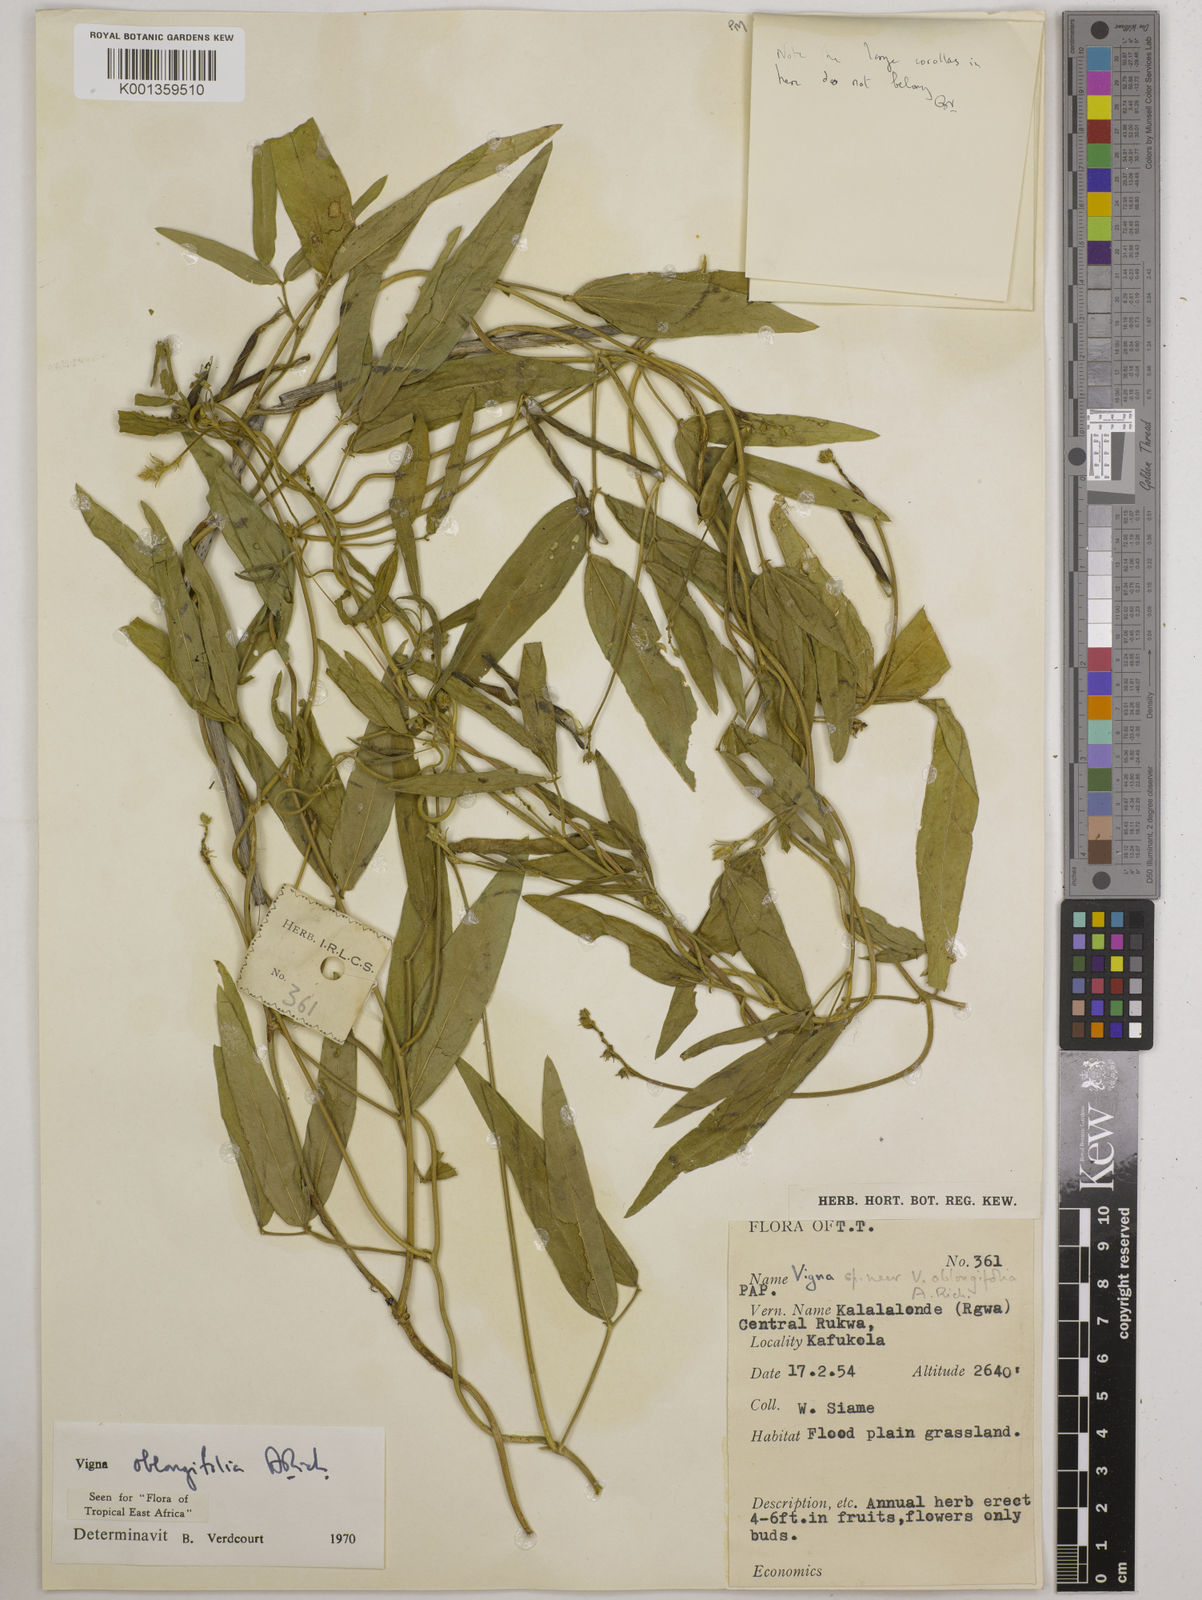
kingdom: Plantae
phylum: Tracheophyta
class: Magnoliopsida
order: Fabales
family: Fabaceae
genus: Vigna
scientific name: Vigna oblongifolia
